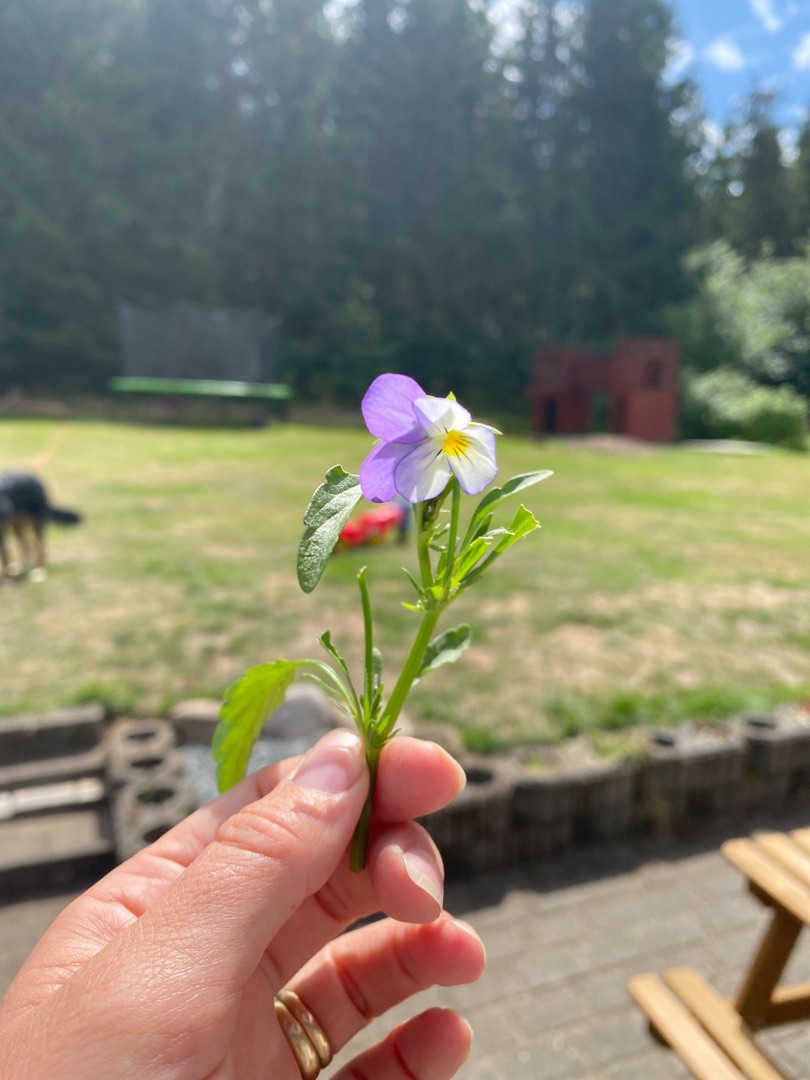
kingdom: Plantae
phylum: Tracheophyta
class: Magnoliopsida
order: Malpighiales
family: Violaceae
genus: Viola
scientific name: Viola tricolor
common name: Stedmoderblomst
